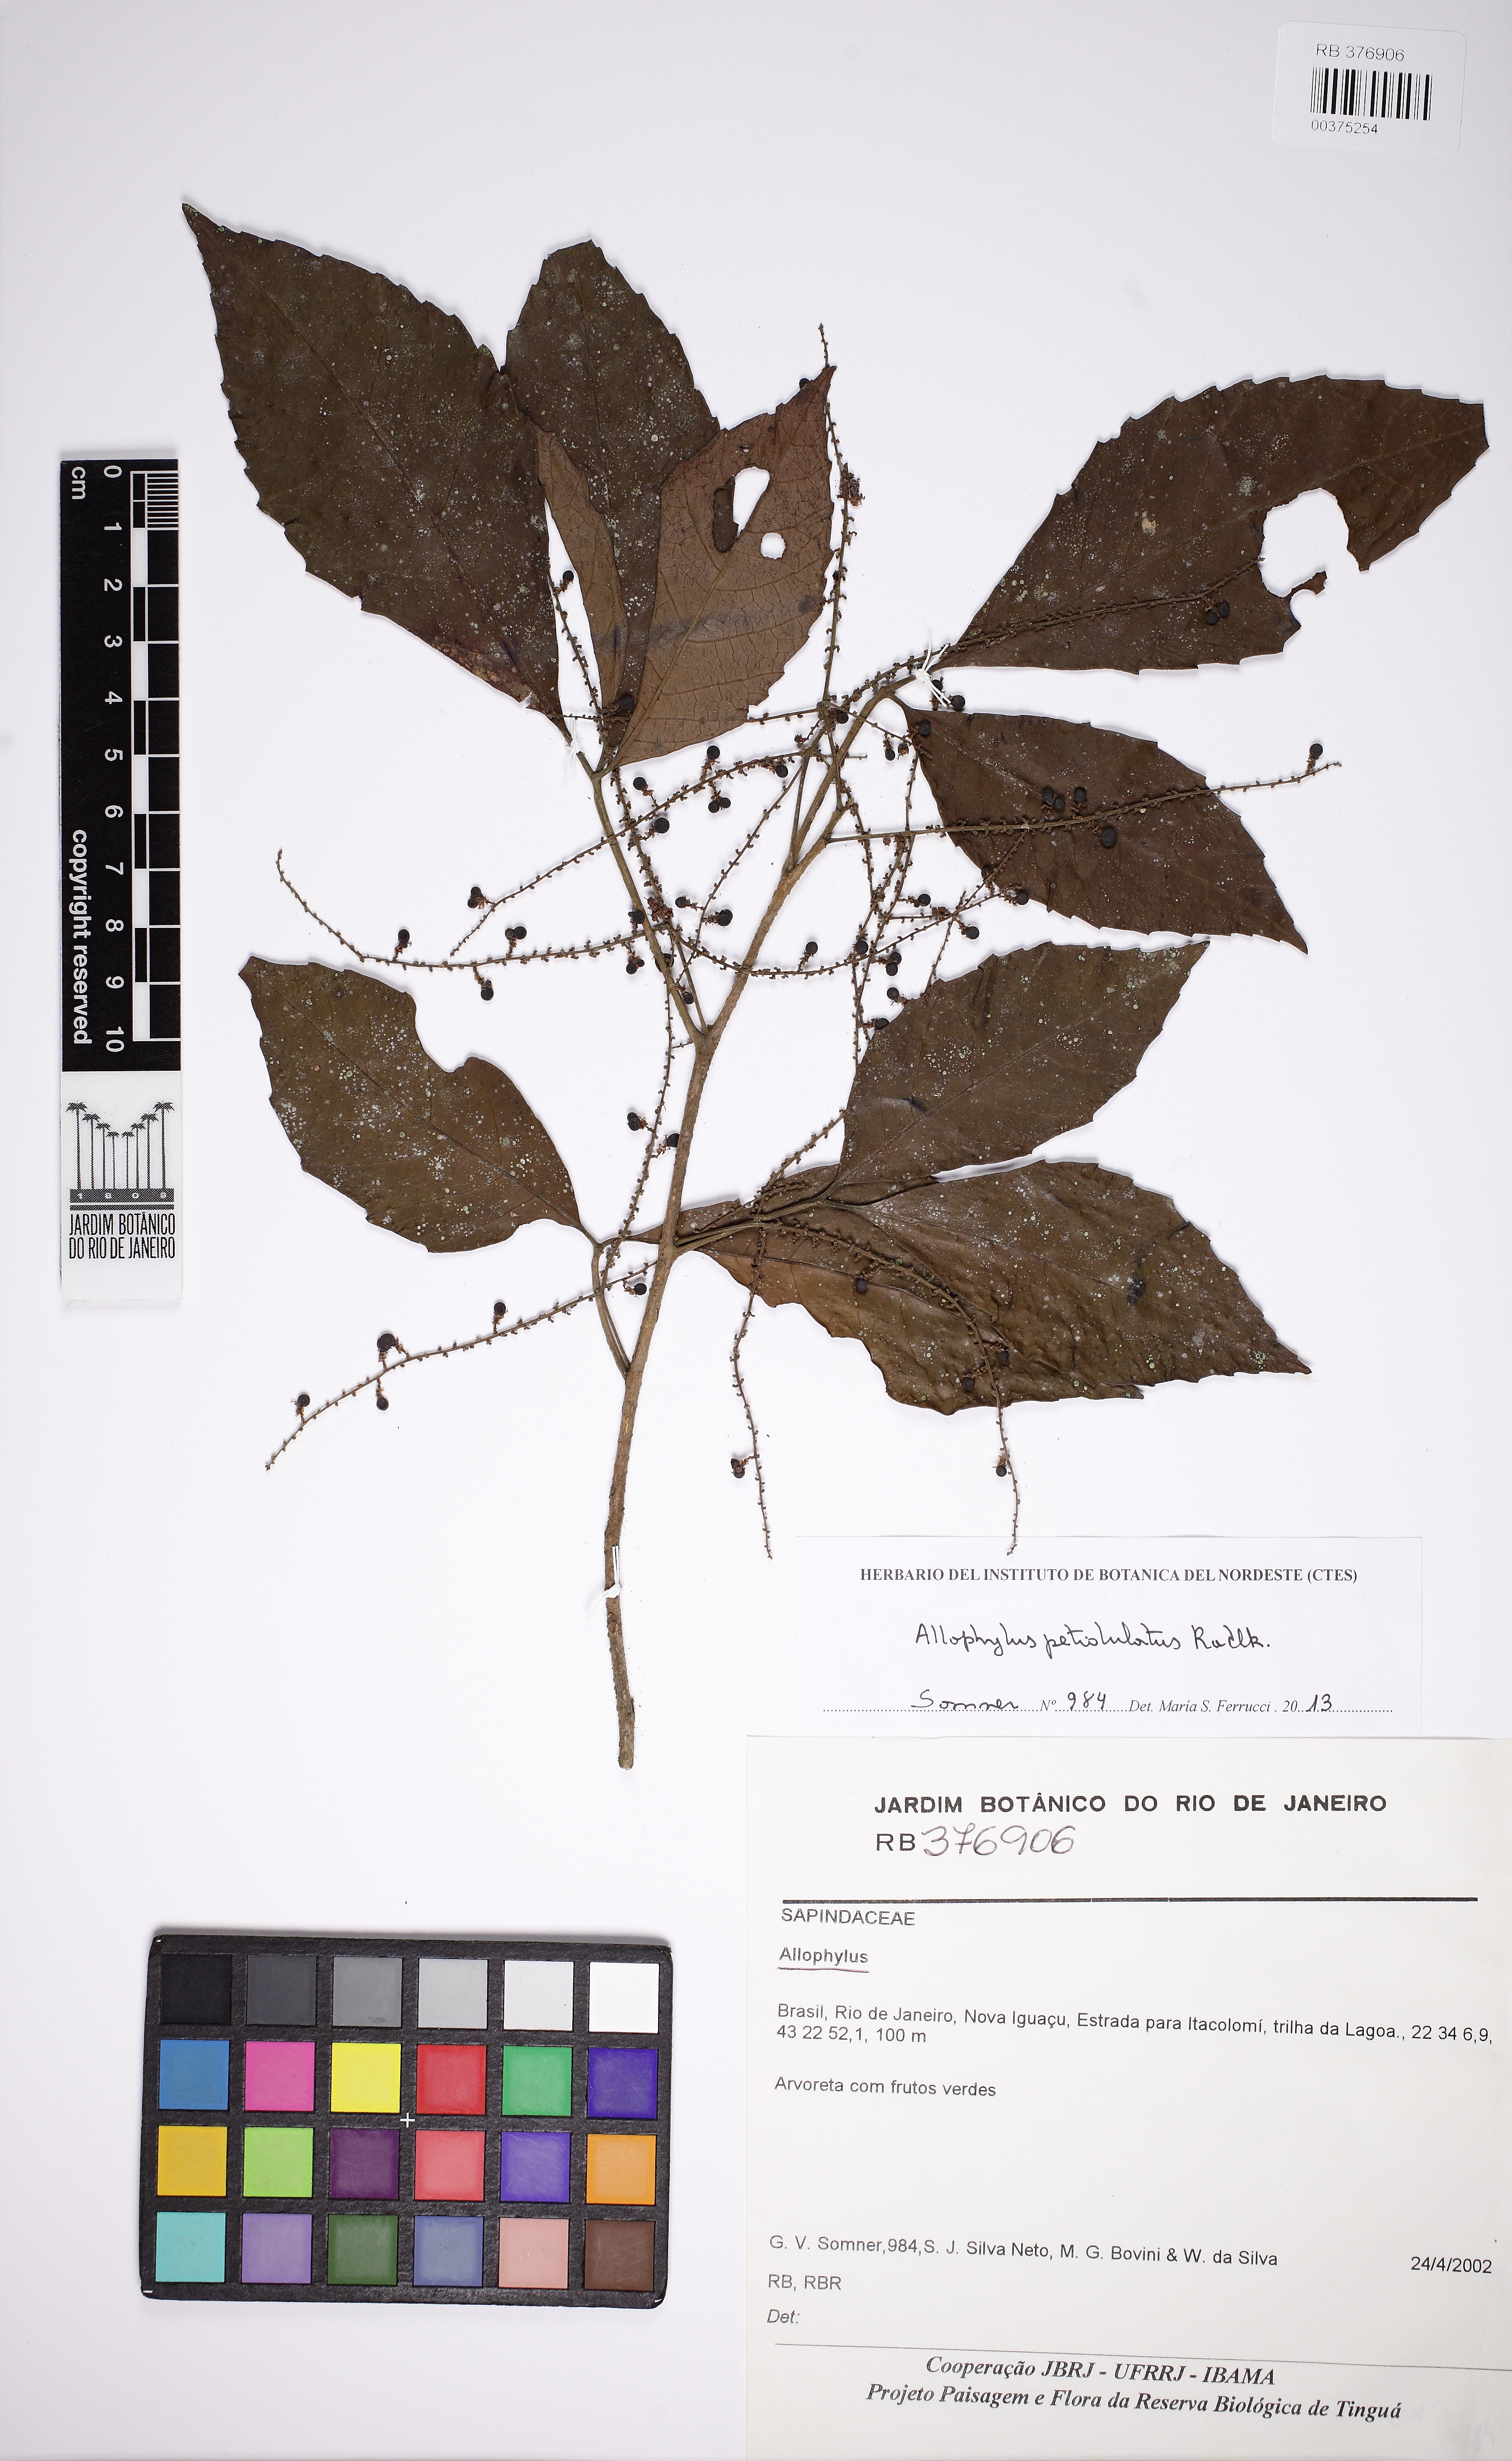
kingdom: Plantae
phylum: Tracheophyta
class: Magnoliopsida
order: Sapindales
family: Sapindaceae
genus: Allophylus
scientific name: Allophylus petiolulatus
